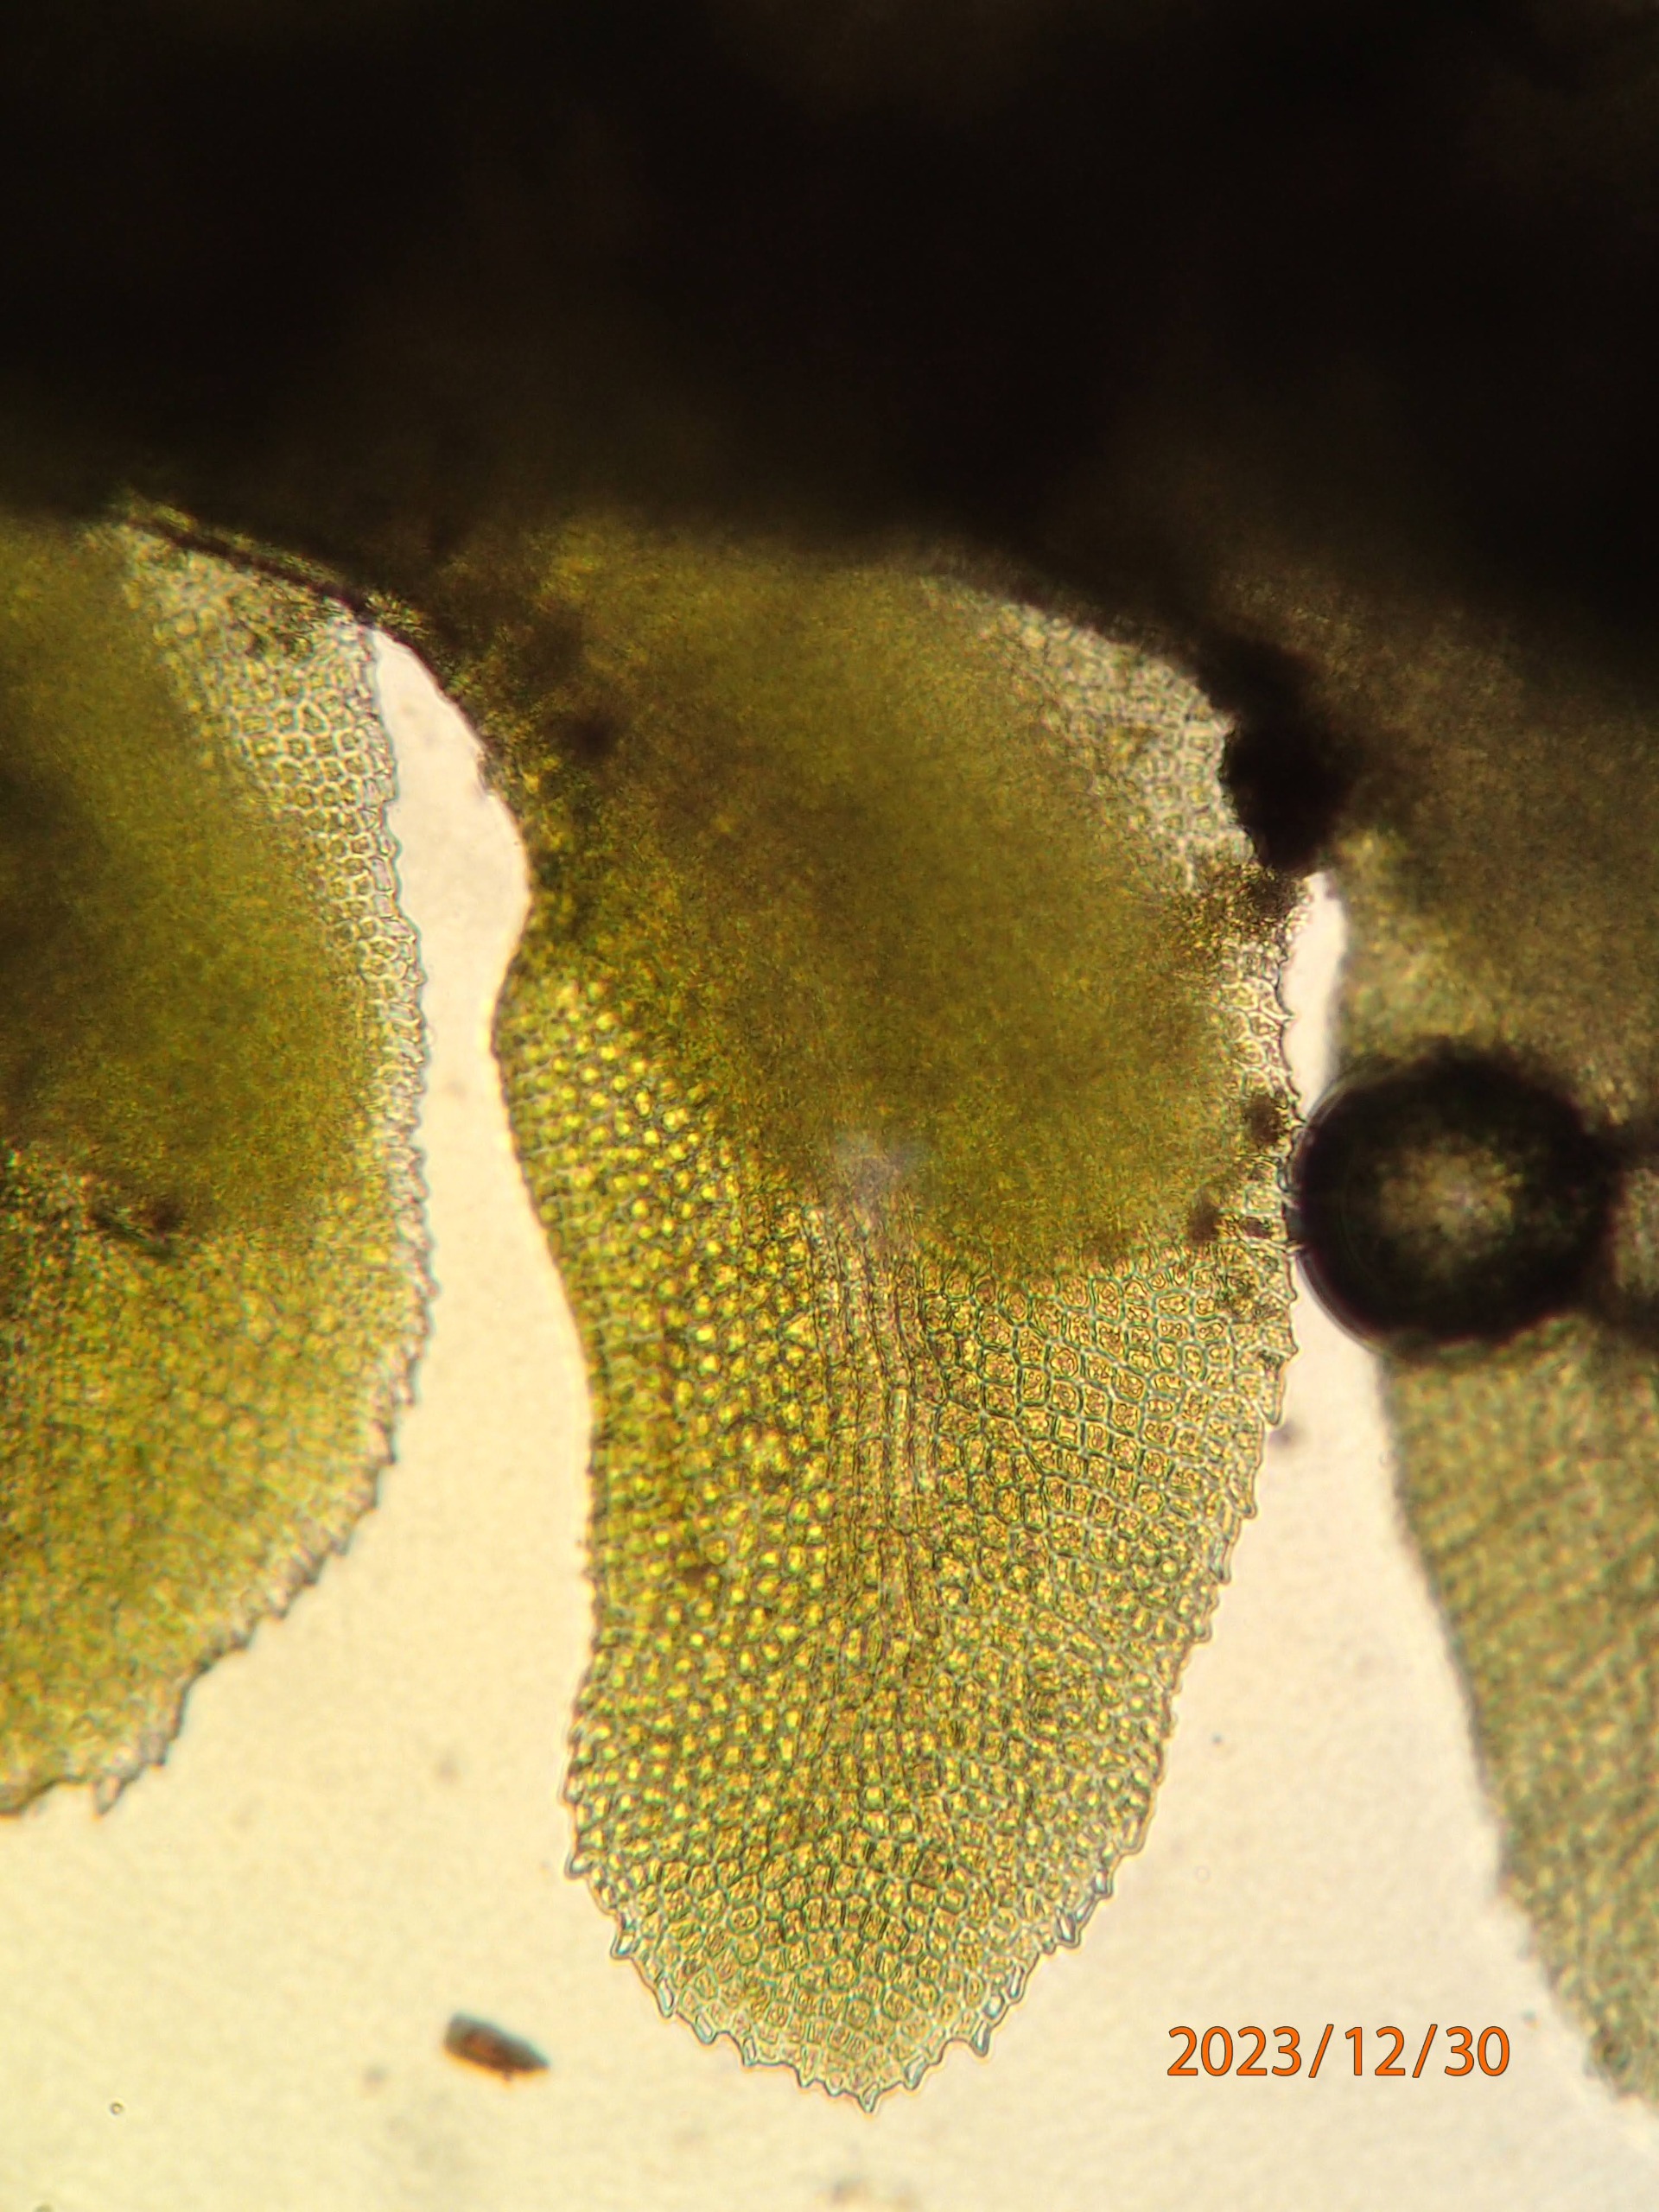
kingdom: Plantae
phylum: Marchantiophyta
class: Jungermanniopsida
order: Jungermanniales
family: Scapaniaceae
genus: Diplophyllum
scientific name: Diplophyllum albicans
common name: Stribet dobbeltblad
